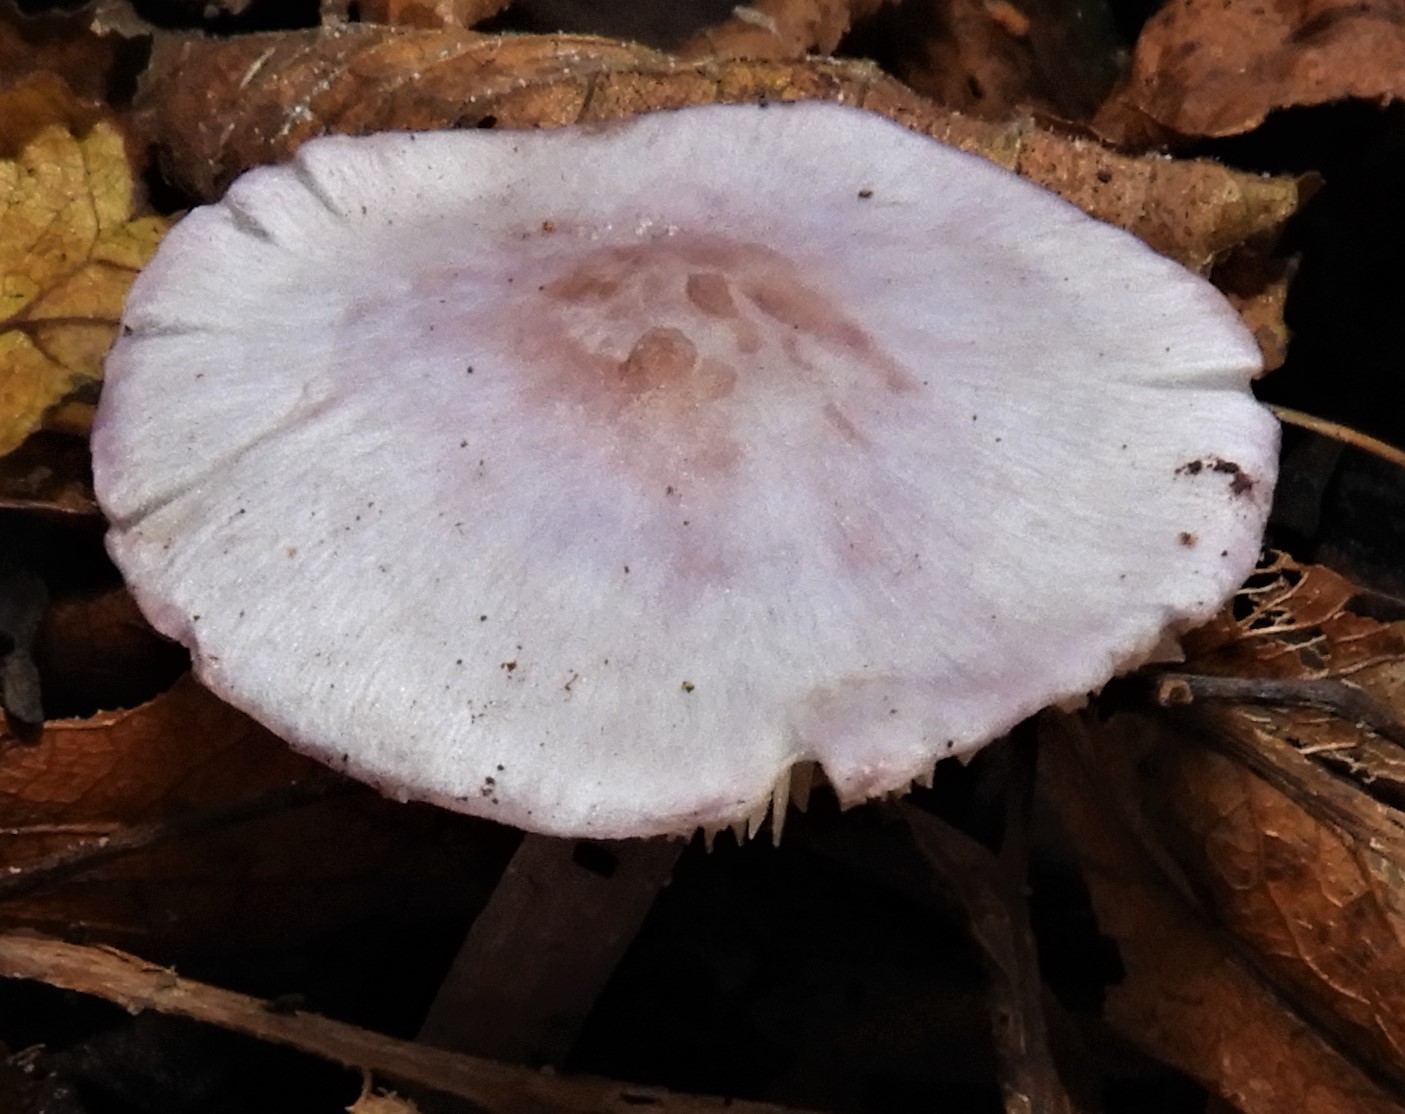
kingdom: Fungi
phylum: Basidiomycota
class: Agaricomycetes
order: Agaricales
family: Inocybaceae
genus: Inocybe
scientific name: Inocybe ionolepis
